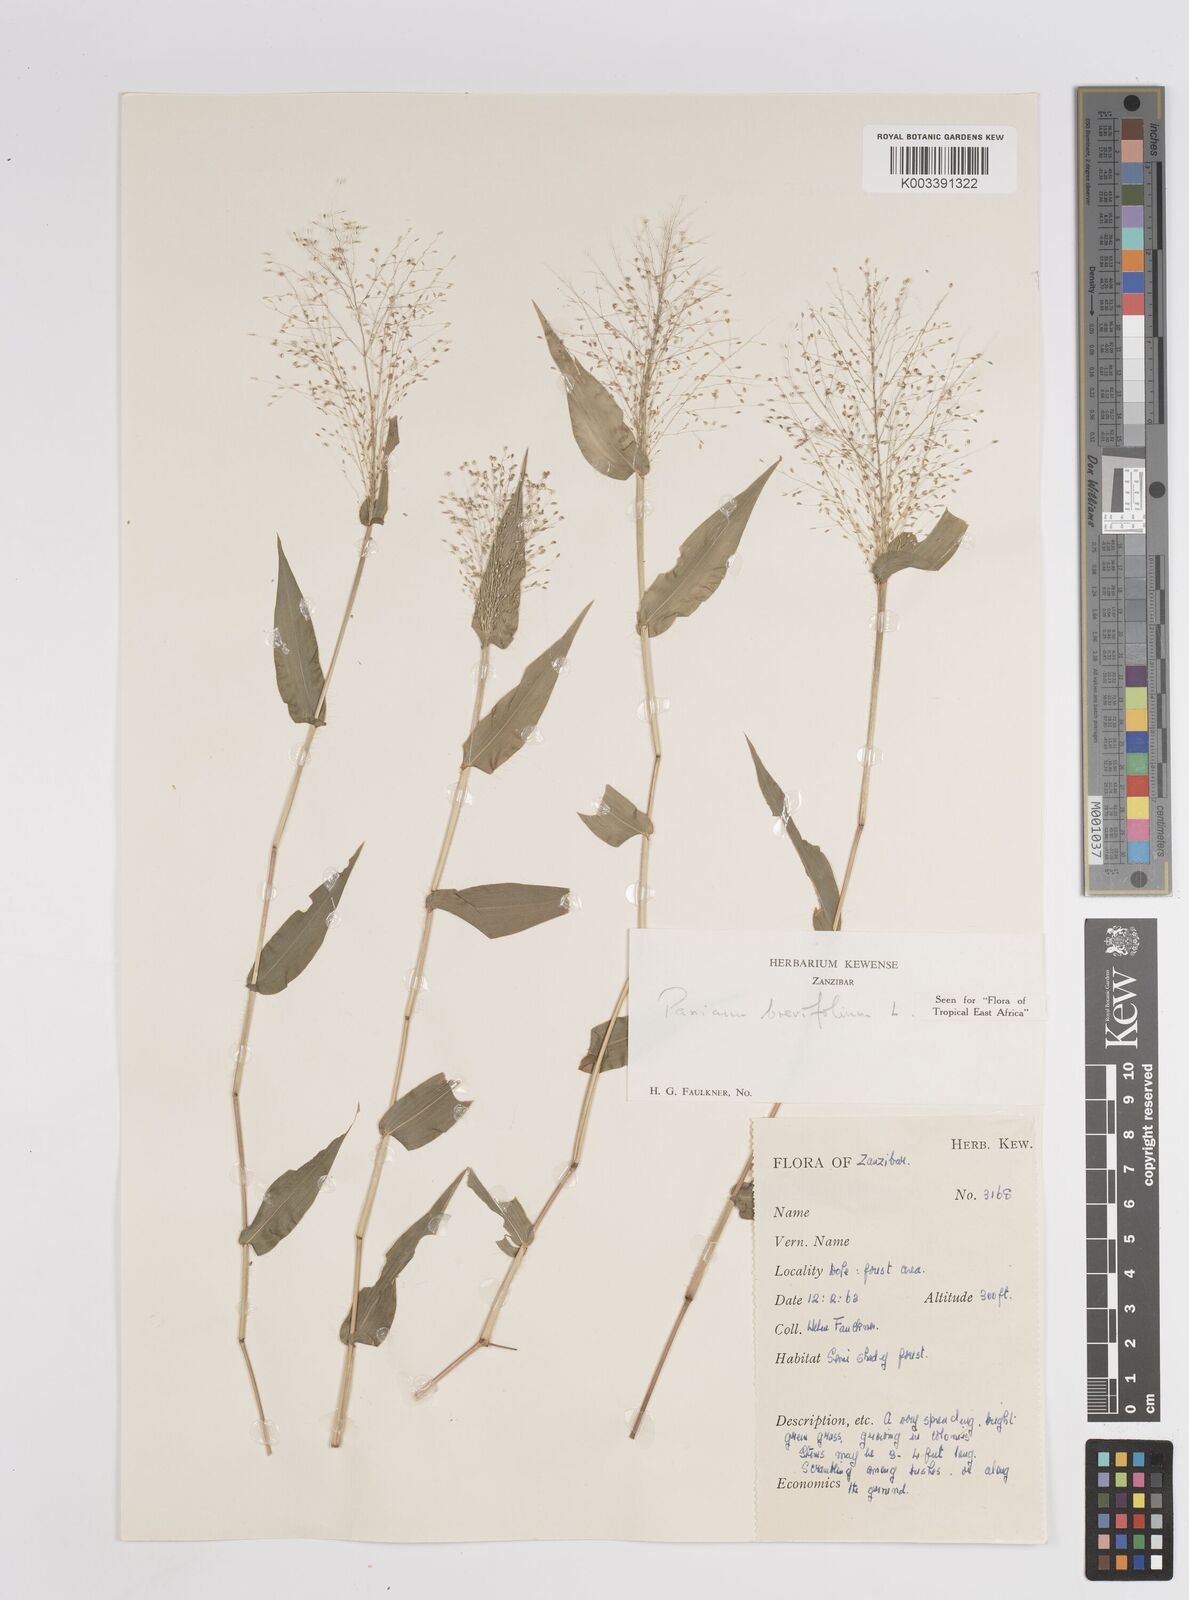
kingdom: Plantae
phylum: Tracheophyta
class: Liliopsida
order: Poales
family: Poaceae
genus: Panicum
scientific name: Panicum brevifolium
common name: Shortleaf panic grass
